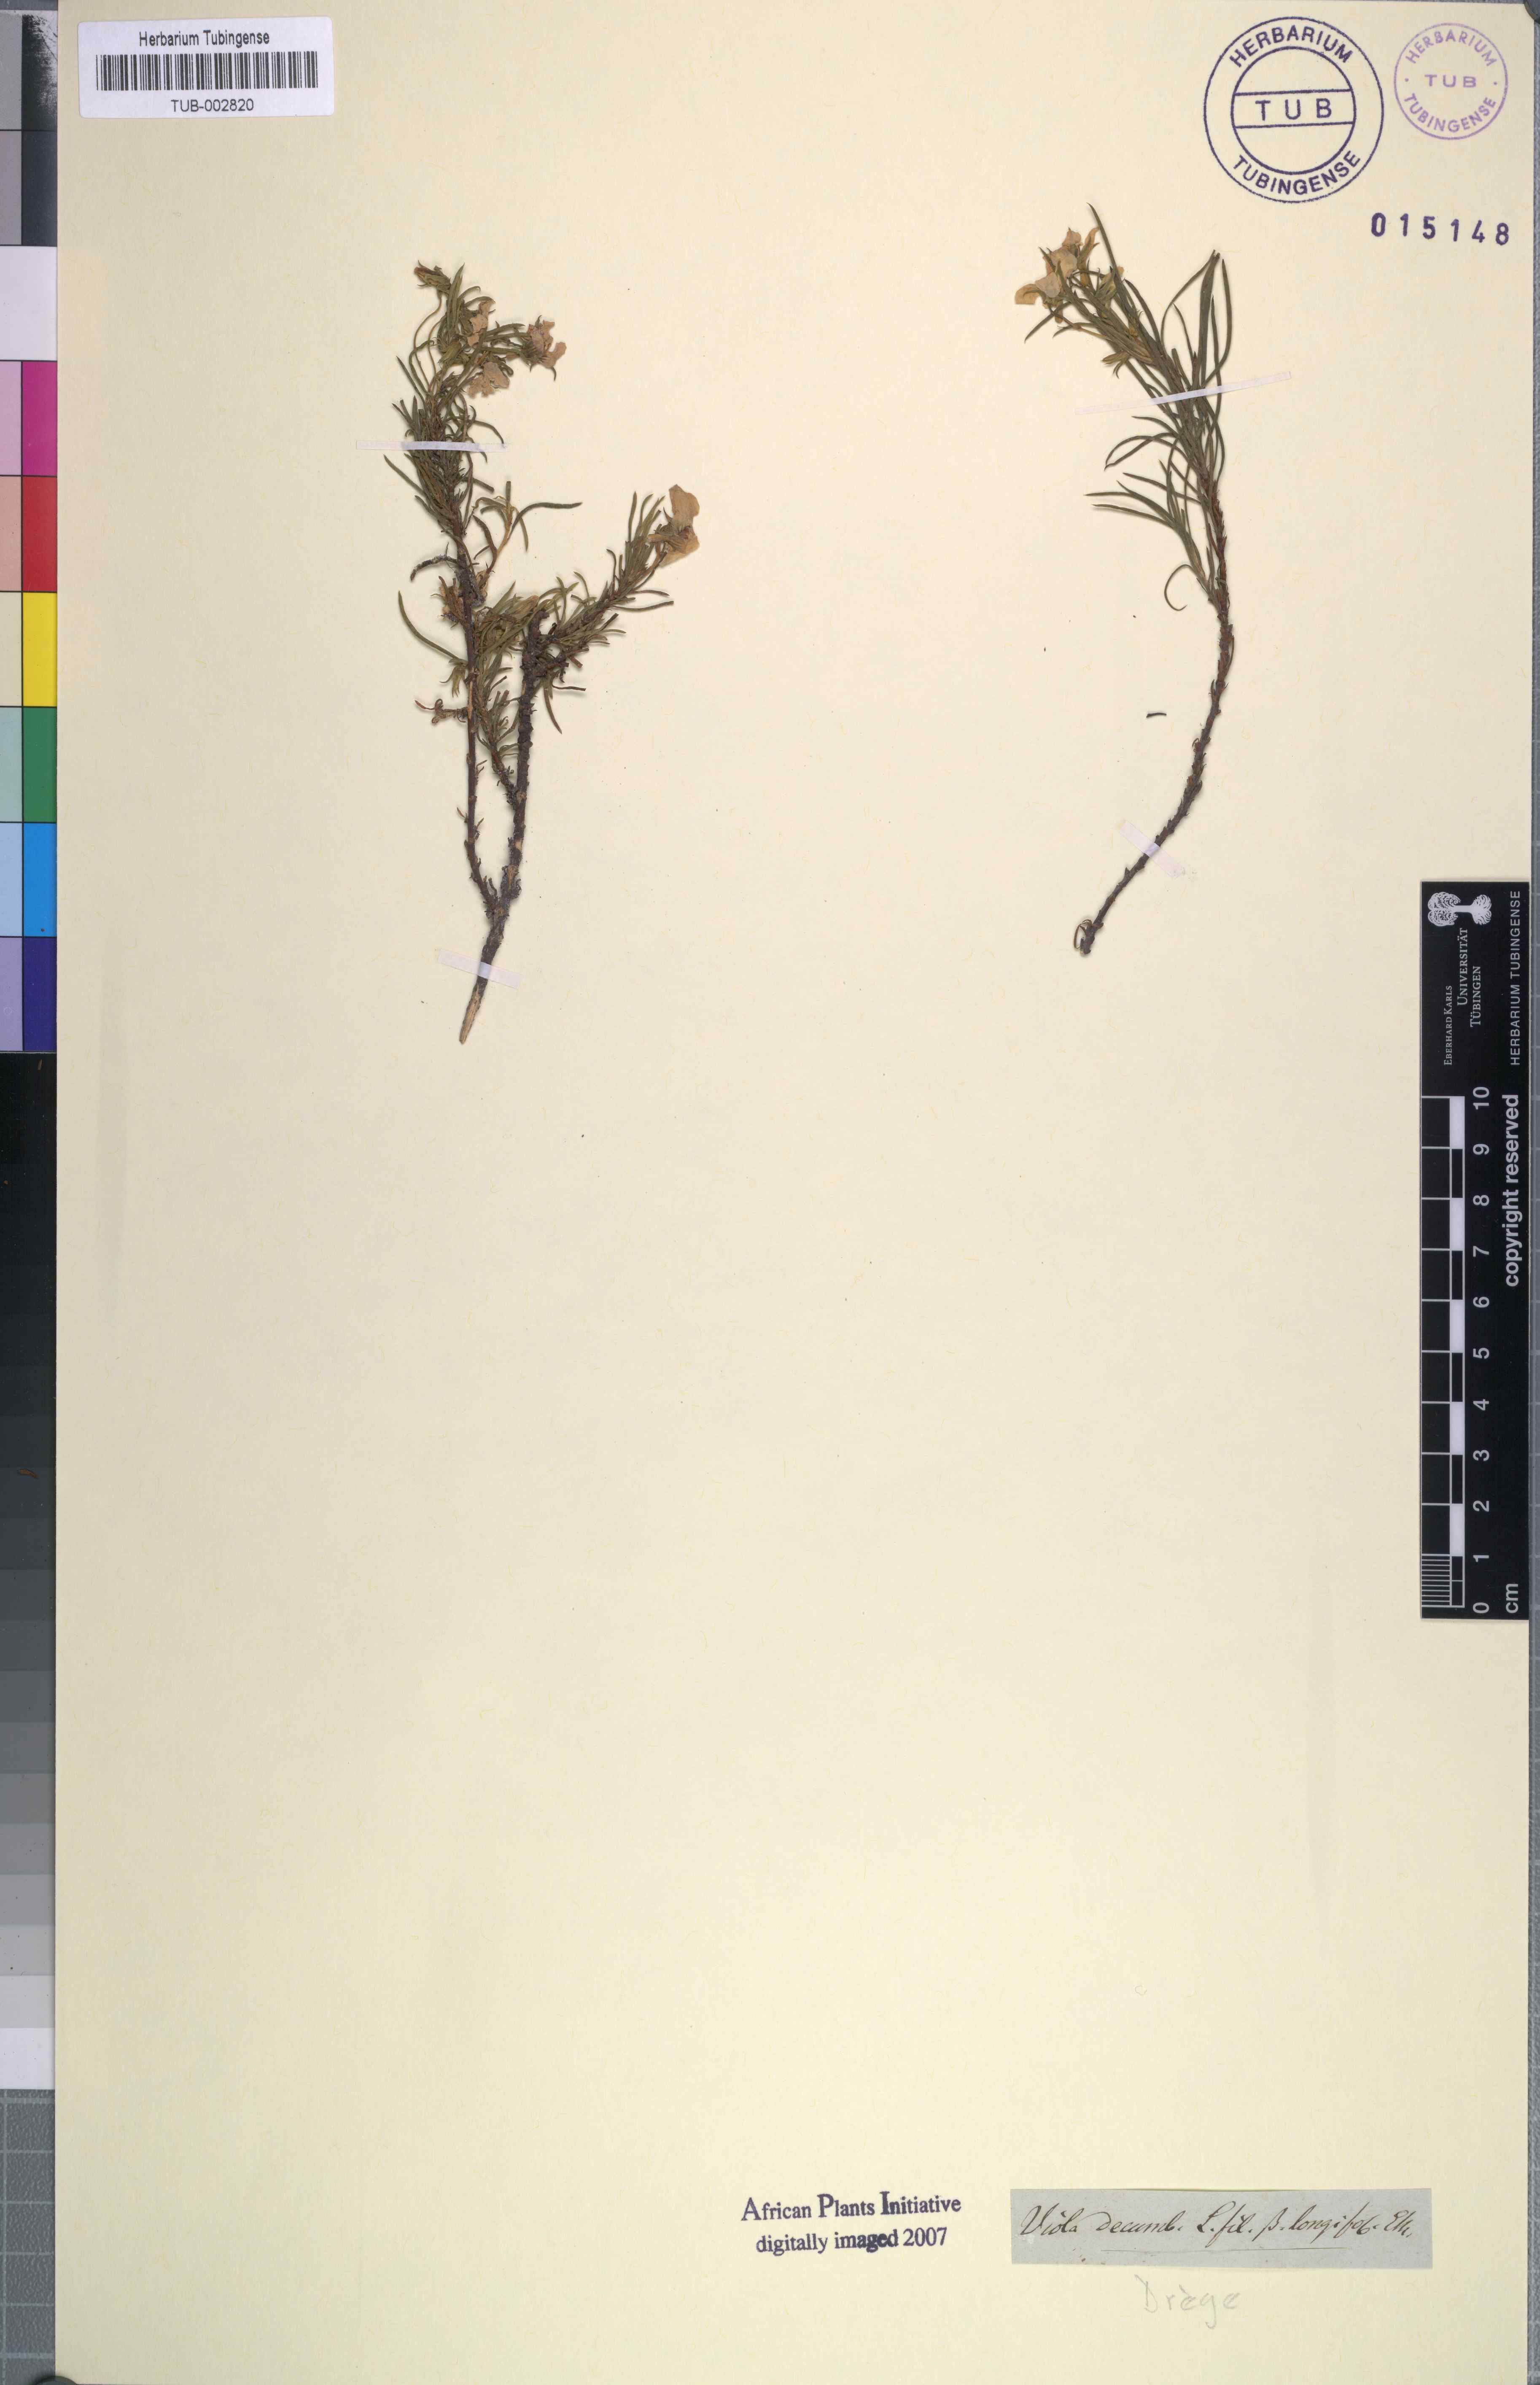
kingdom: Plantae
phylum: Tracheophyta
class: Magnoliopsida
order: Malpighiales
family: Violaceae
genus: Viola
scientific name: Viola decumbens
